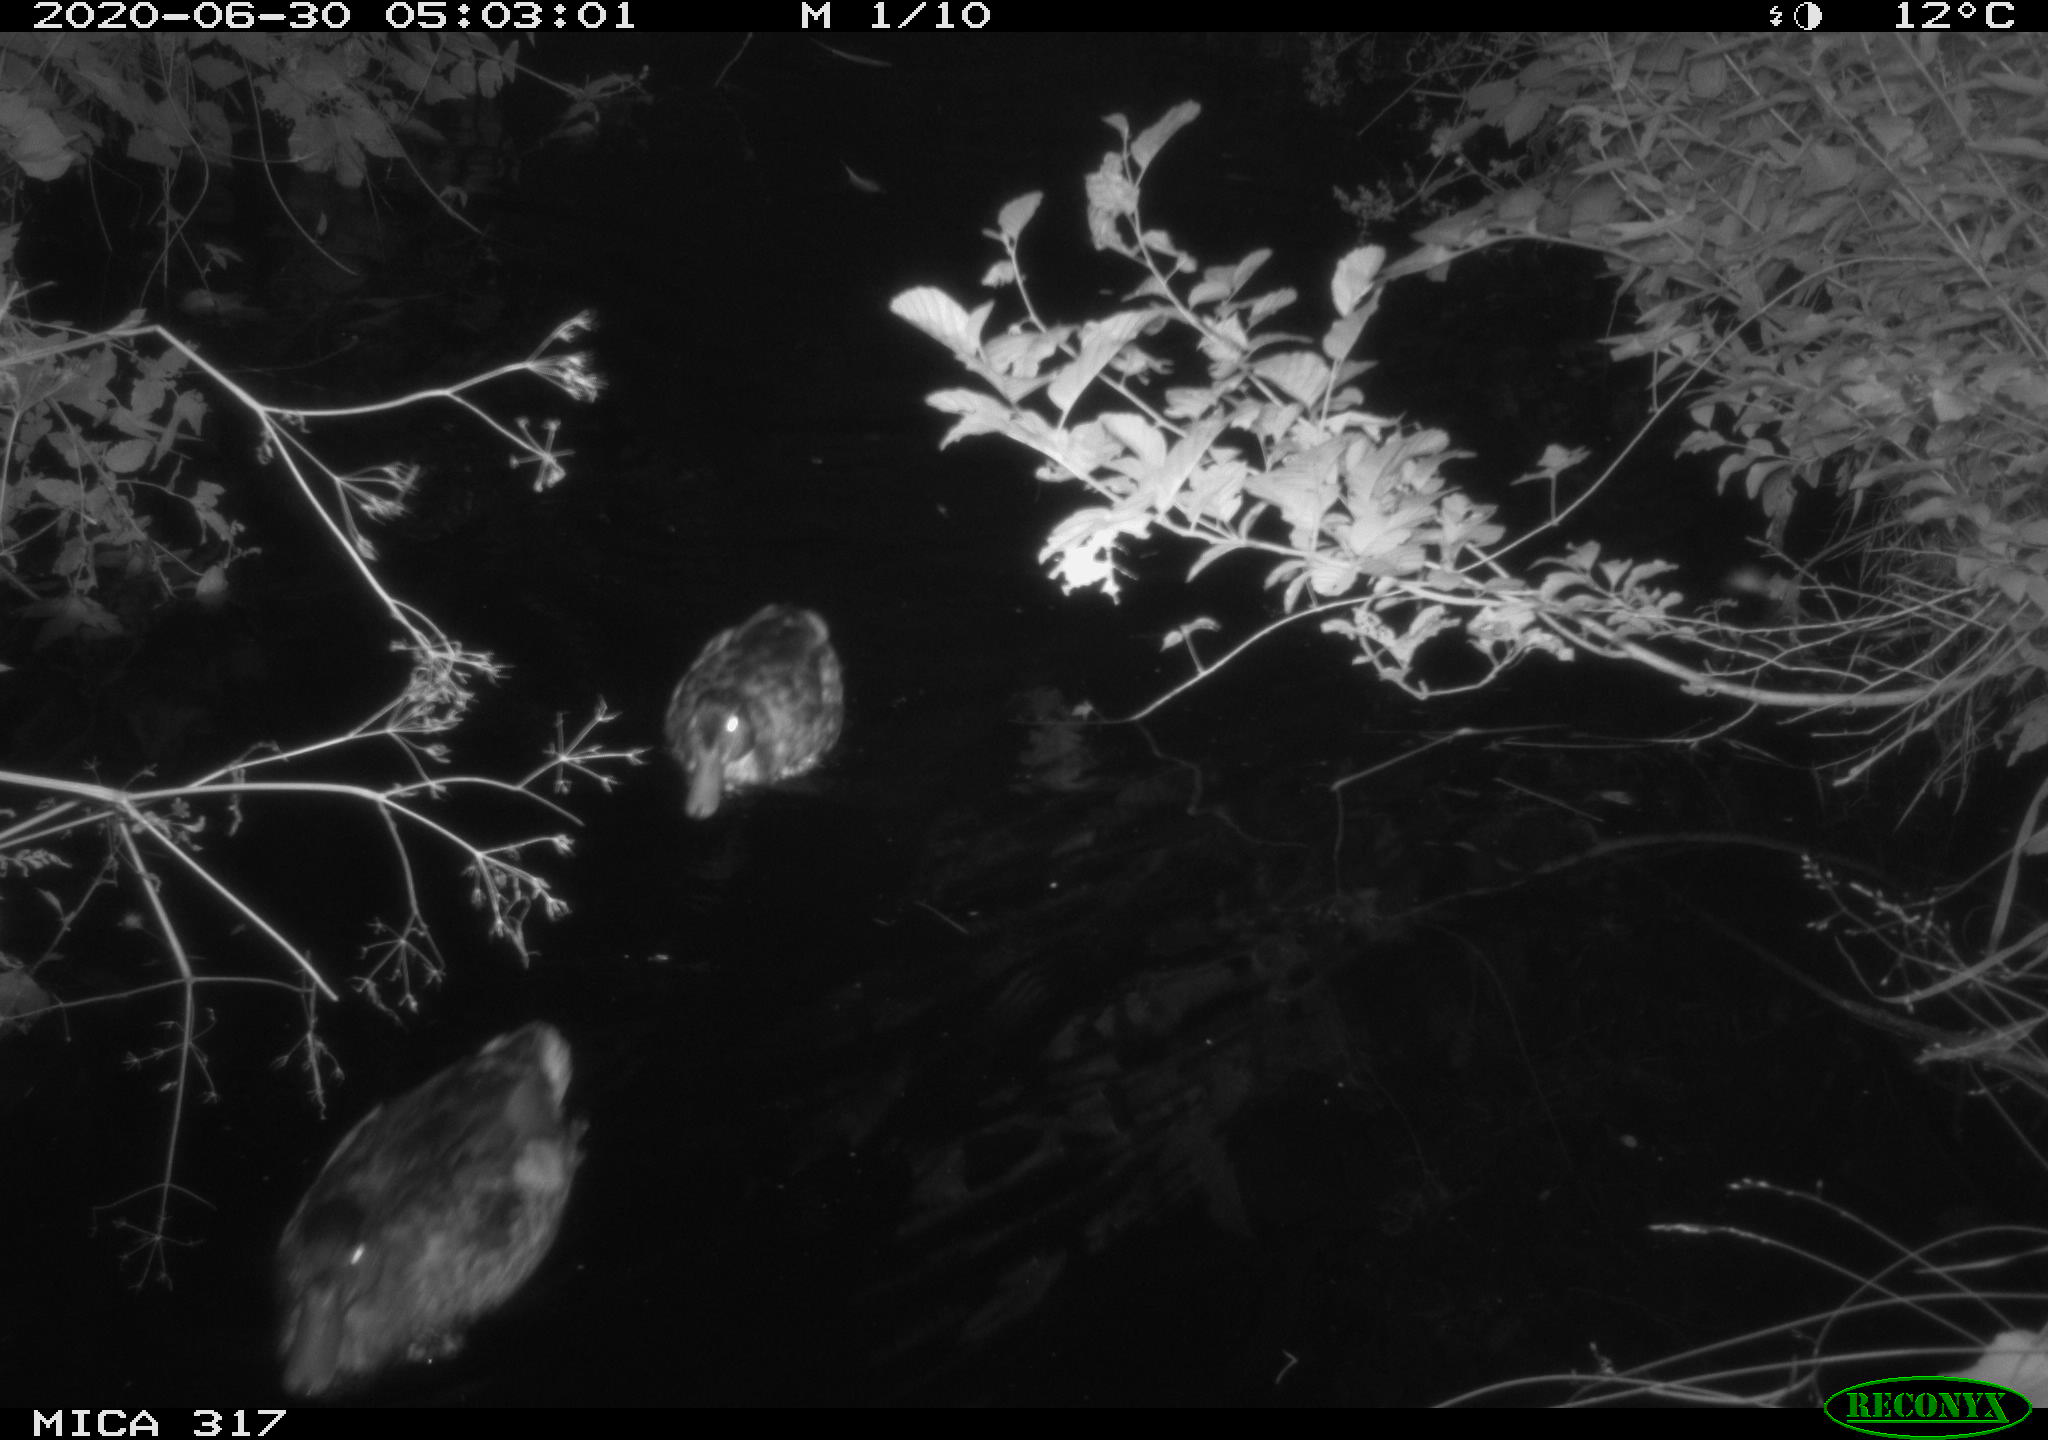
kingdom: Animalia
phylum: Chordata
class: Aves
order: Anseriformes
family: Anatidae
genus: Anas
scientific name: Anas platyrhynchos
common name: Mallard
